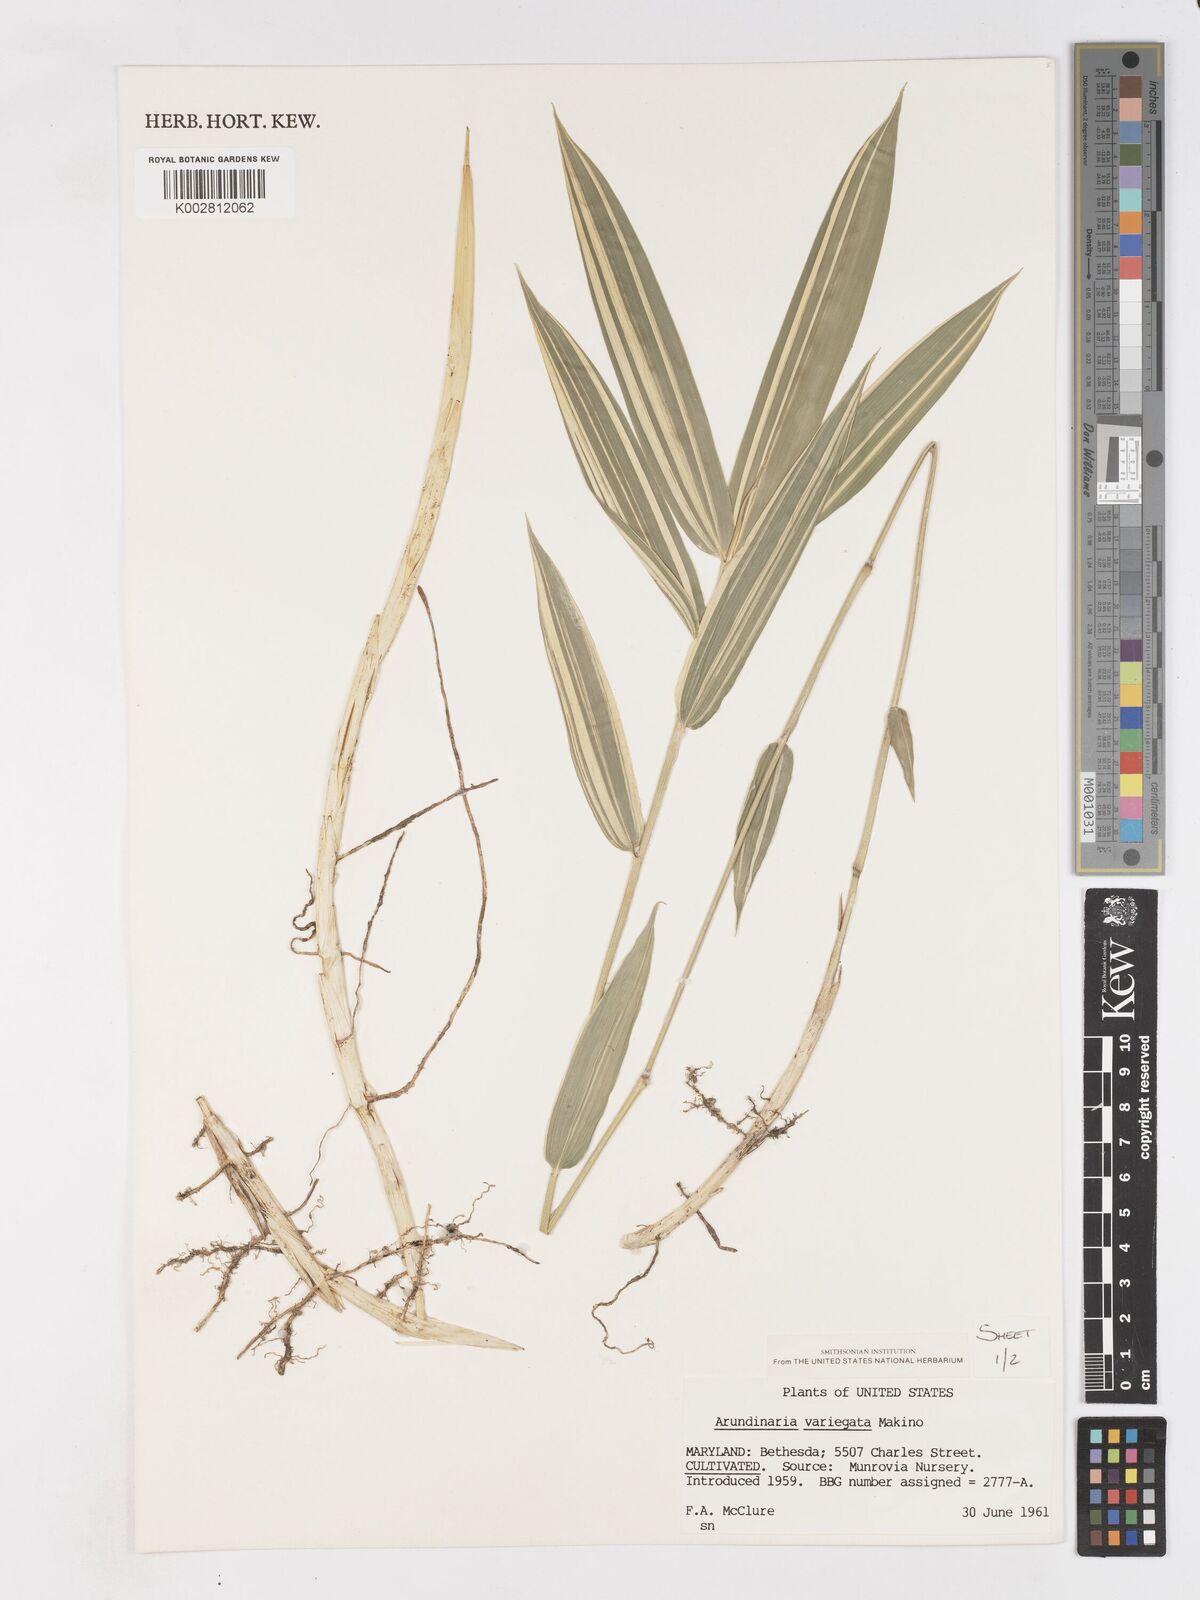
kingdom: Plantae
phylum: Tracheophyta
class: Liliopsida
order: Poales
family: Poaceae
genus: Pleioblastus
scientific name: Pleioblastus argenteostriatus
